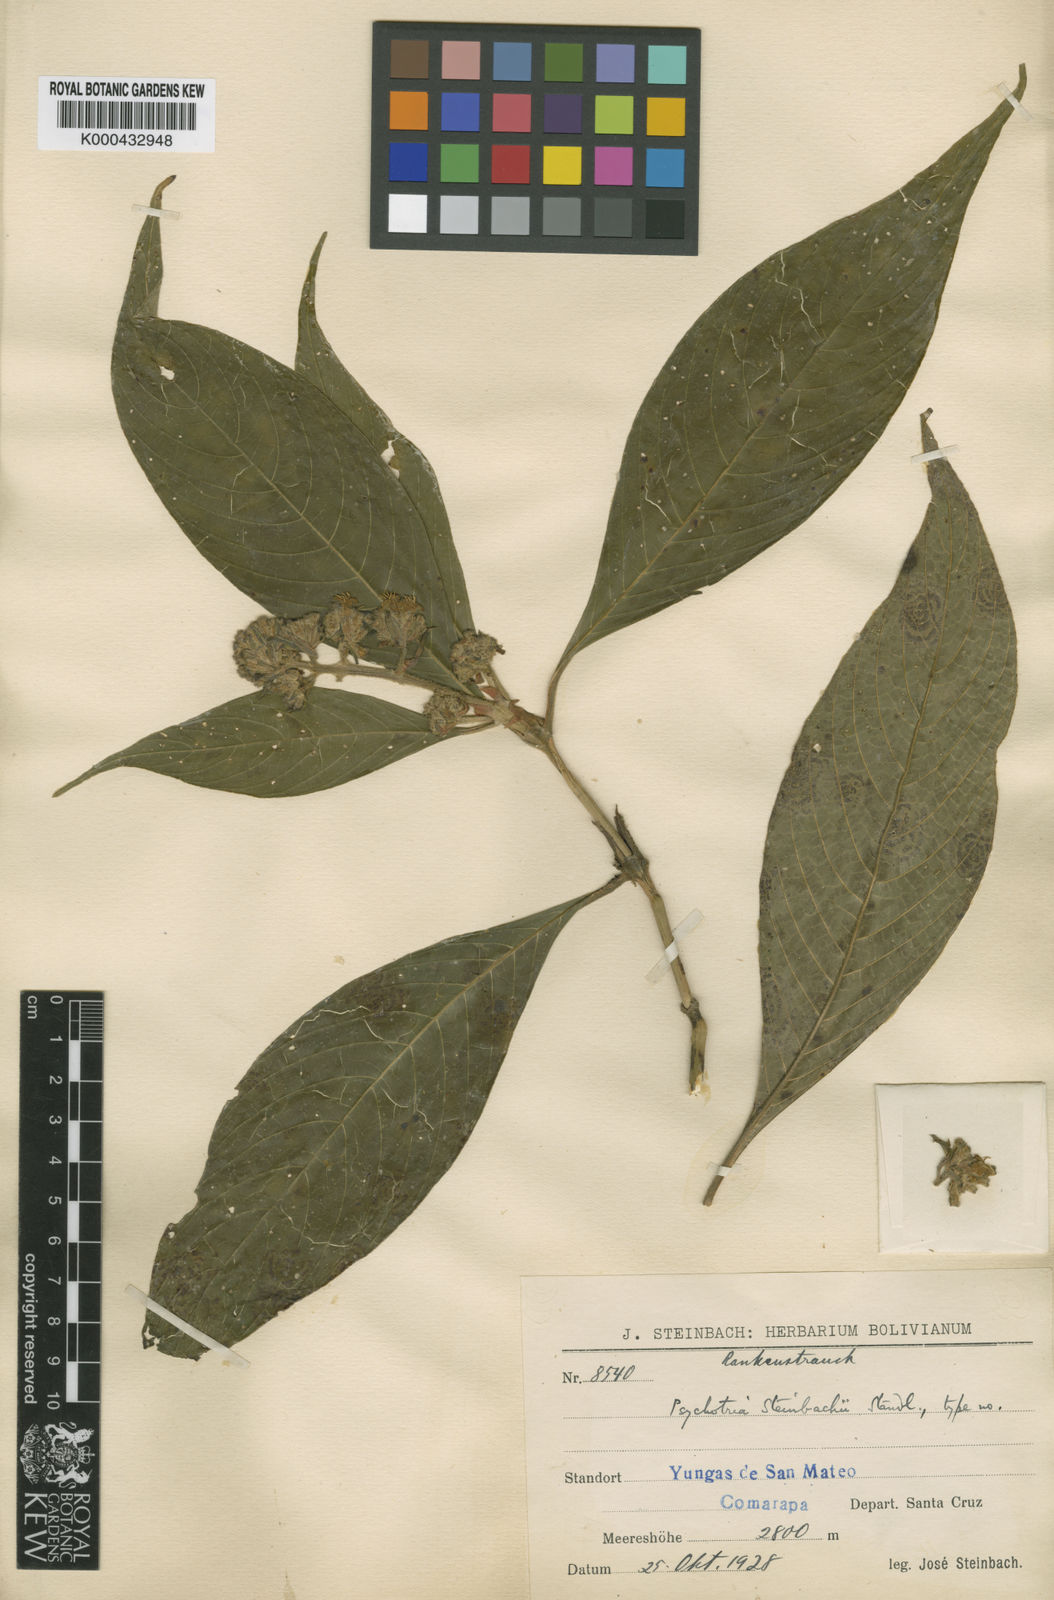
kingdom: Plantae
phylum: Tracheophyta
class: Magnoliopsida
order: Gentianales
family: Rubiaceae
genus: Palicourea
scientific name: Palicourea steinbachii
